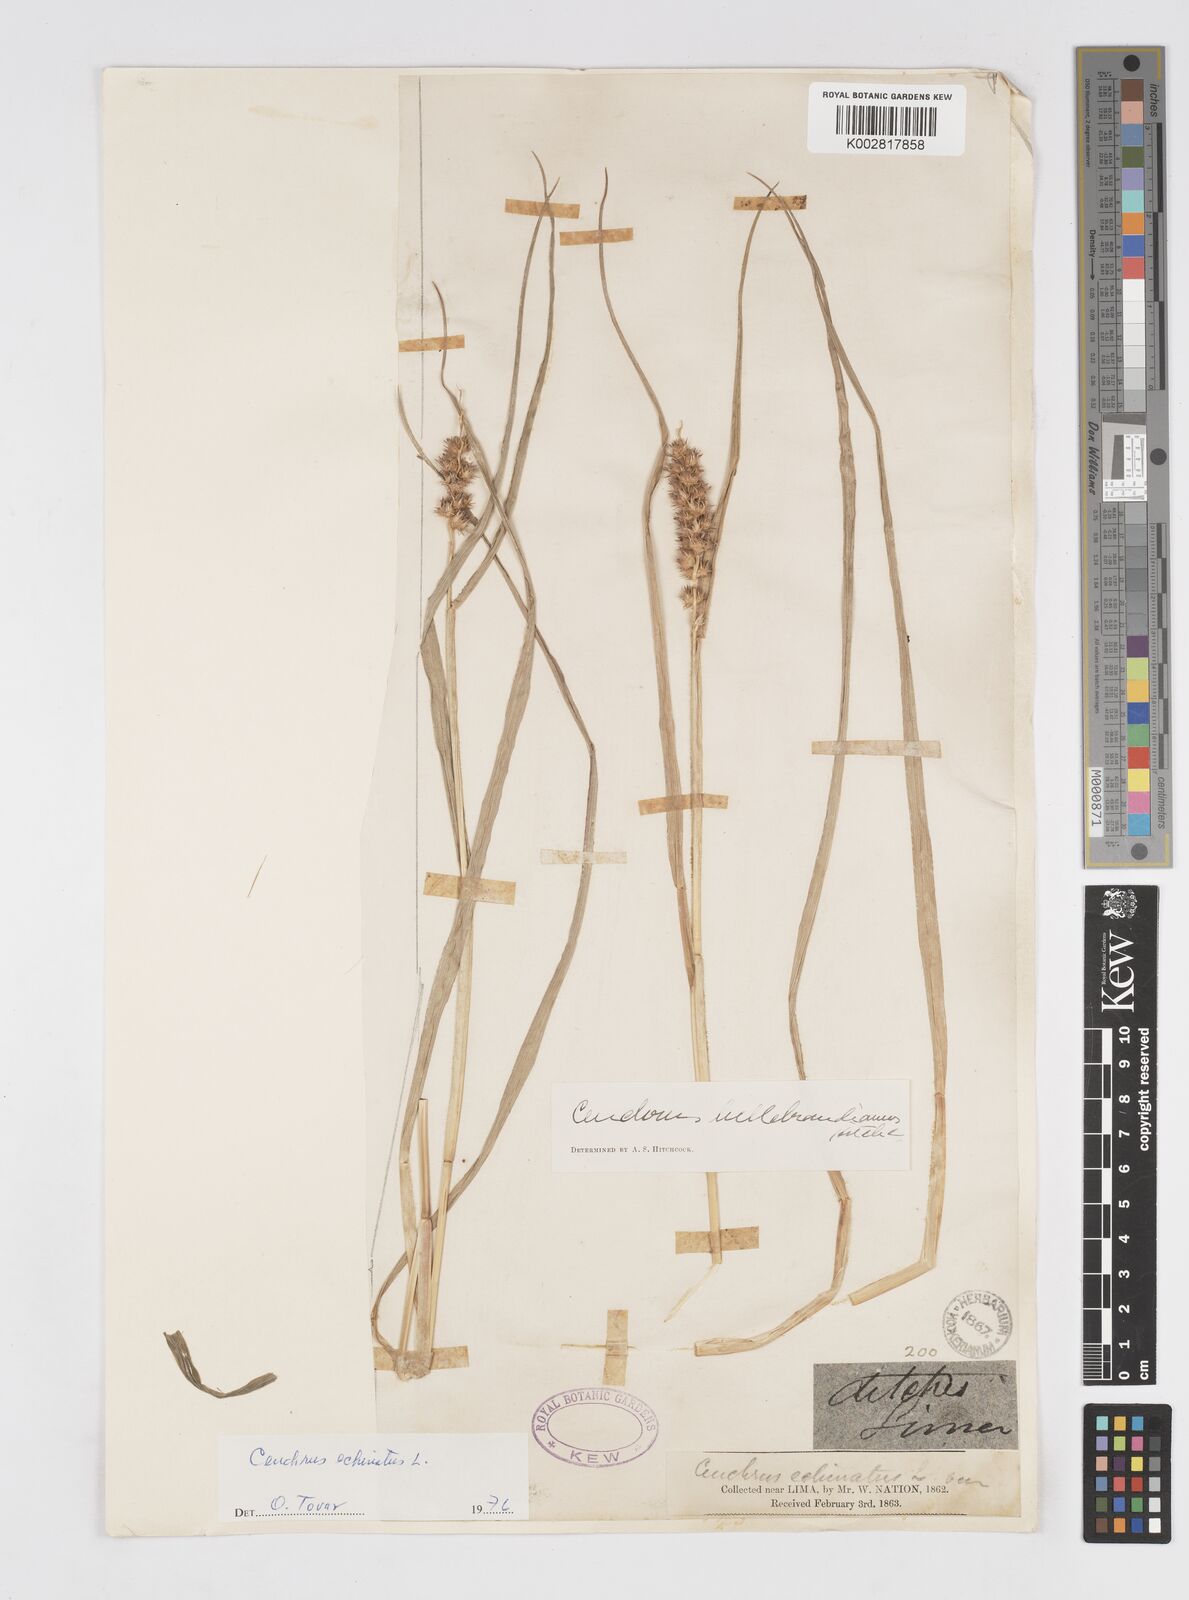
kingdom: Plantae
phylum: Tracheophyta
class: Liliopsida
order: Poales
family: Poaceae
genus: Cenchrus
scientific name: Cenchrus
